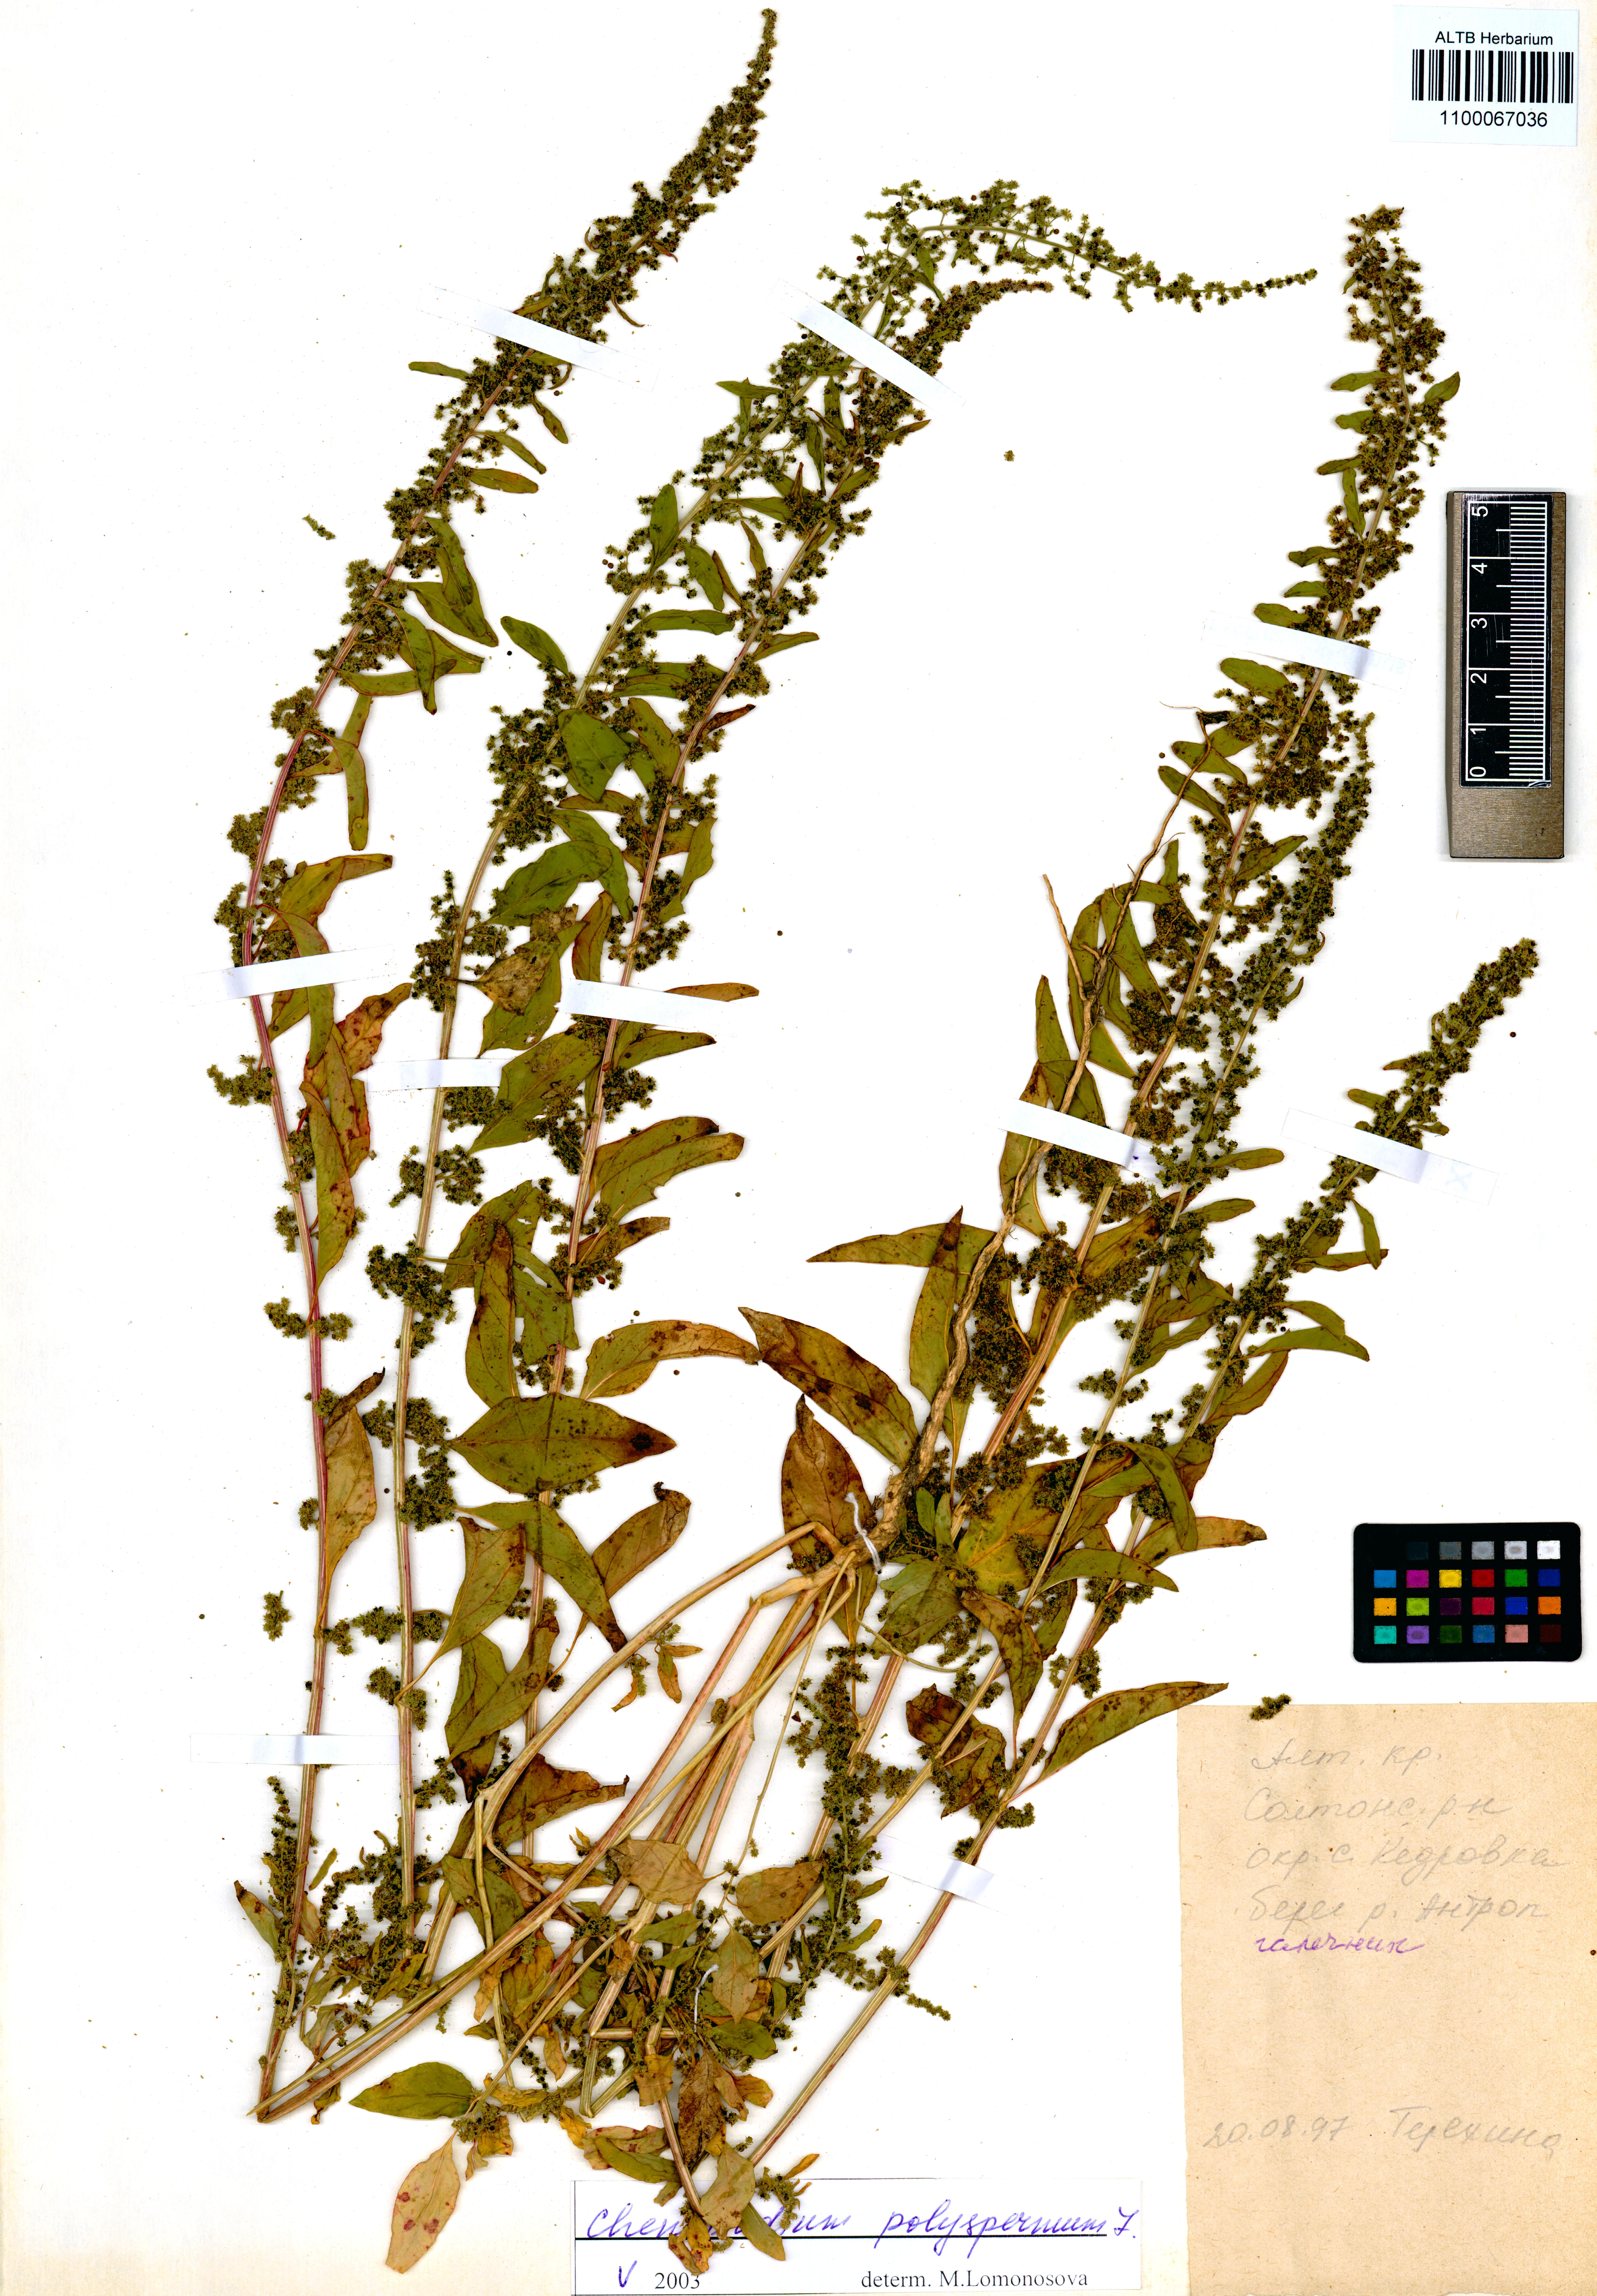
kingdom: Plantae
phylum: Tracheophyta
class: Magnoliopsida
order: Caryophyllales
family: Amaranthaceae
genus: Lipandra
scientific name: Lipandra polysperma
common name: Many-seed goosefoot
